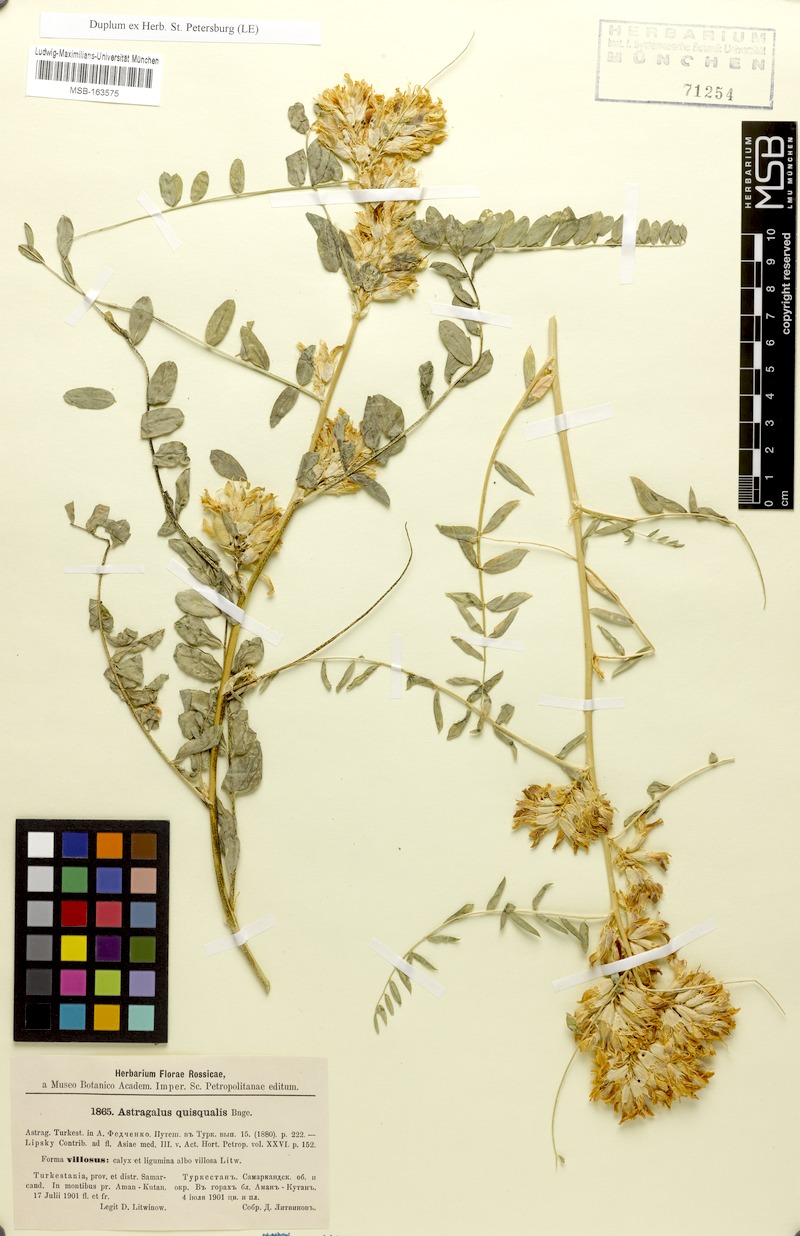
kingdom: Plantae
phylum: Tracheophyta
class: Magnoliopsida
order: Fabales
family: Fabaceae
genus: Astragalus
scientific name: Astragalus quisqualis
